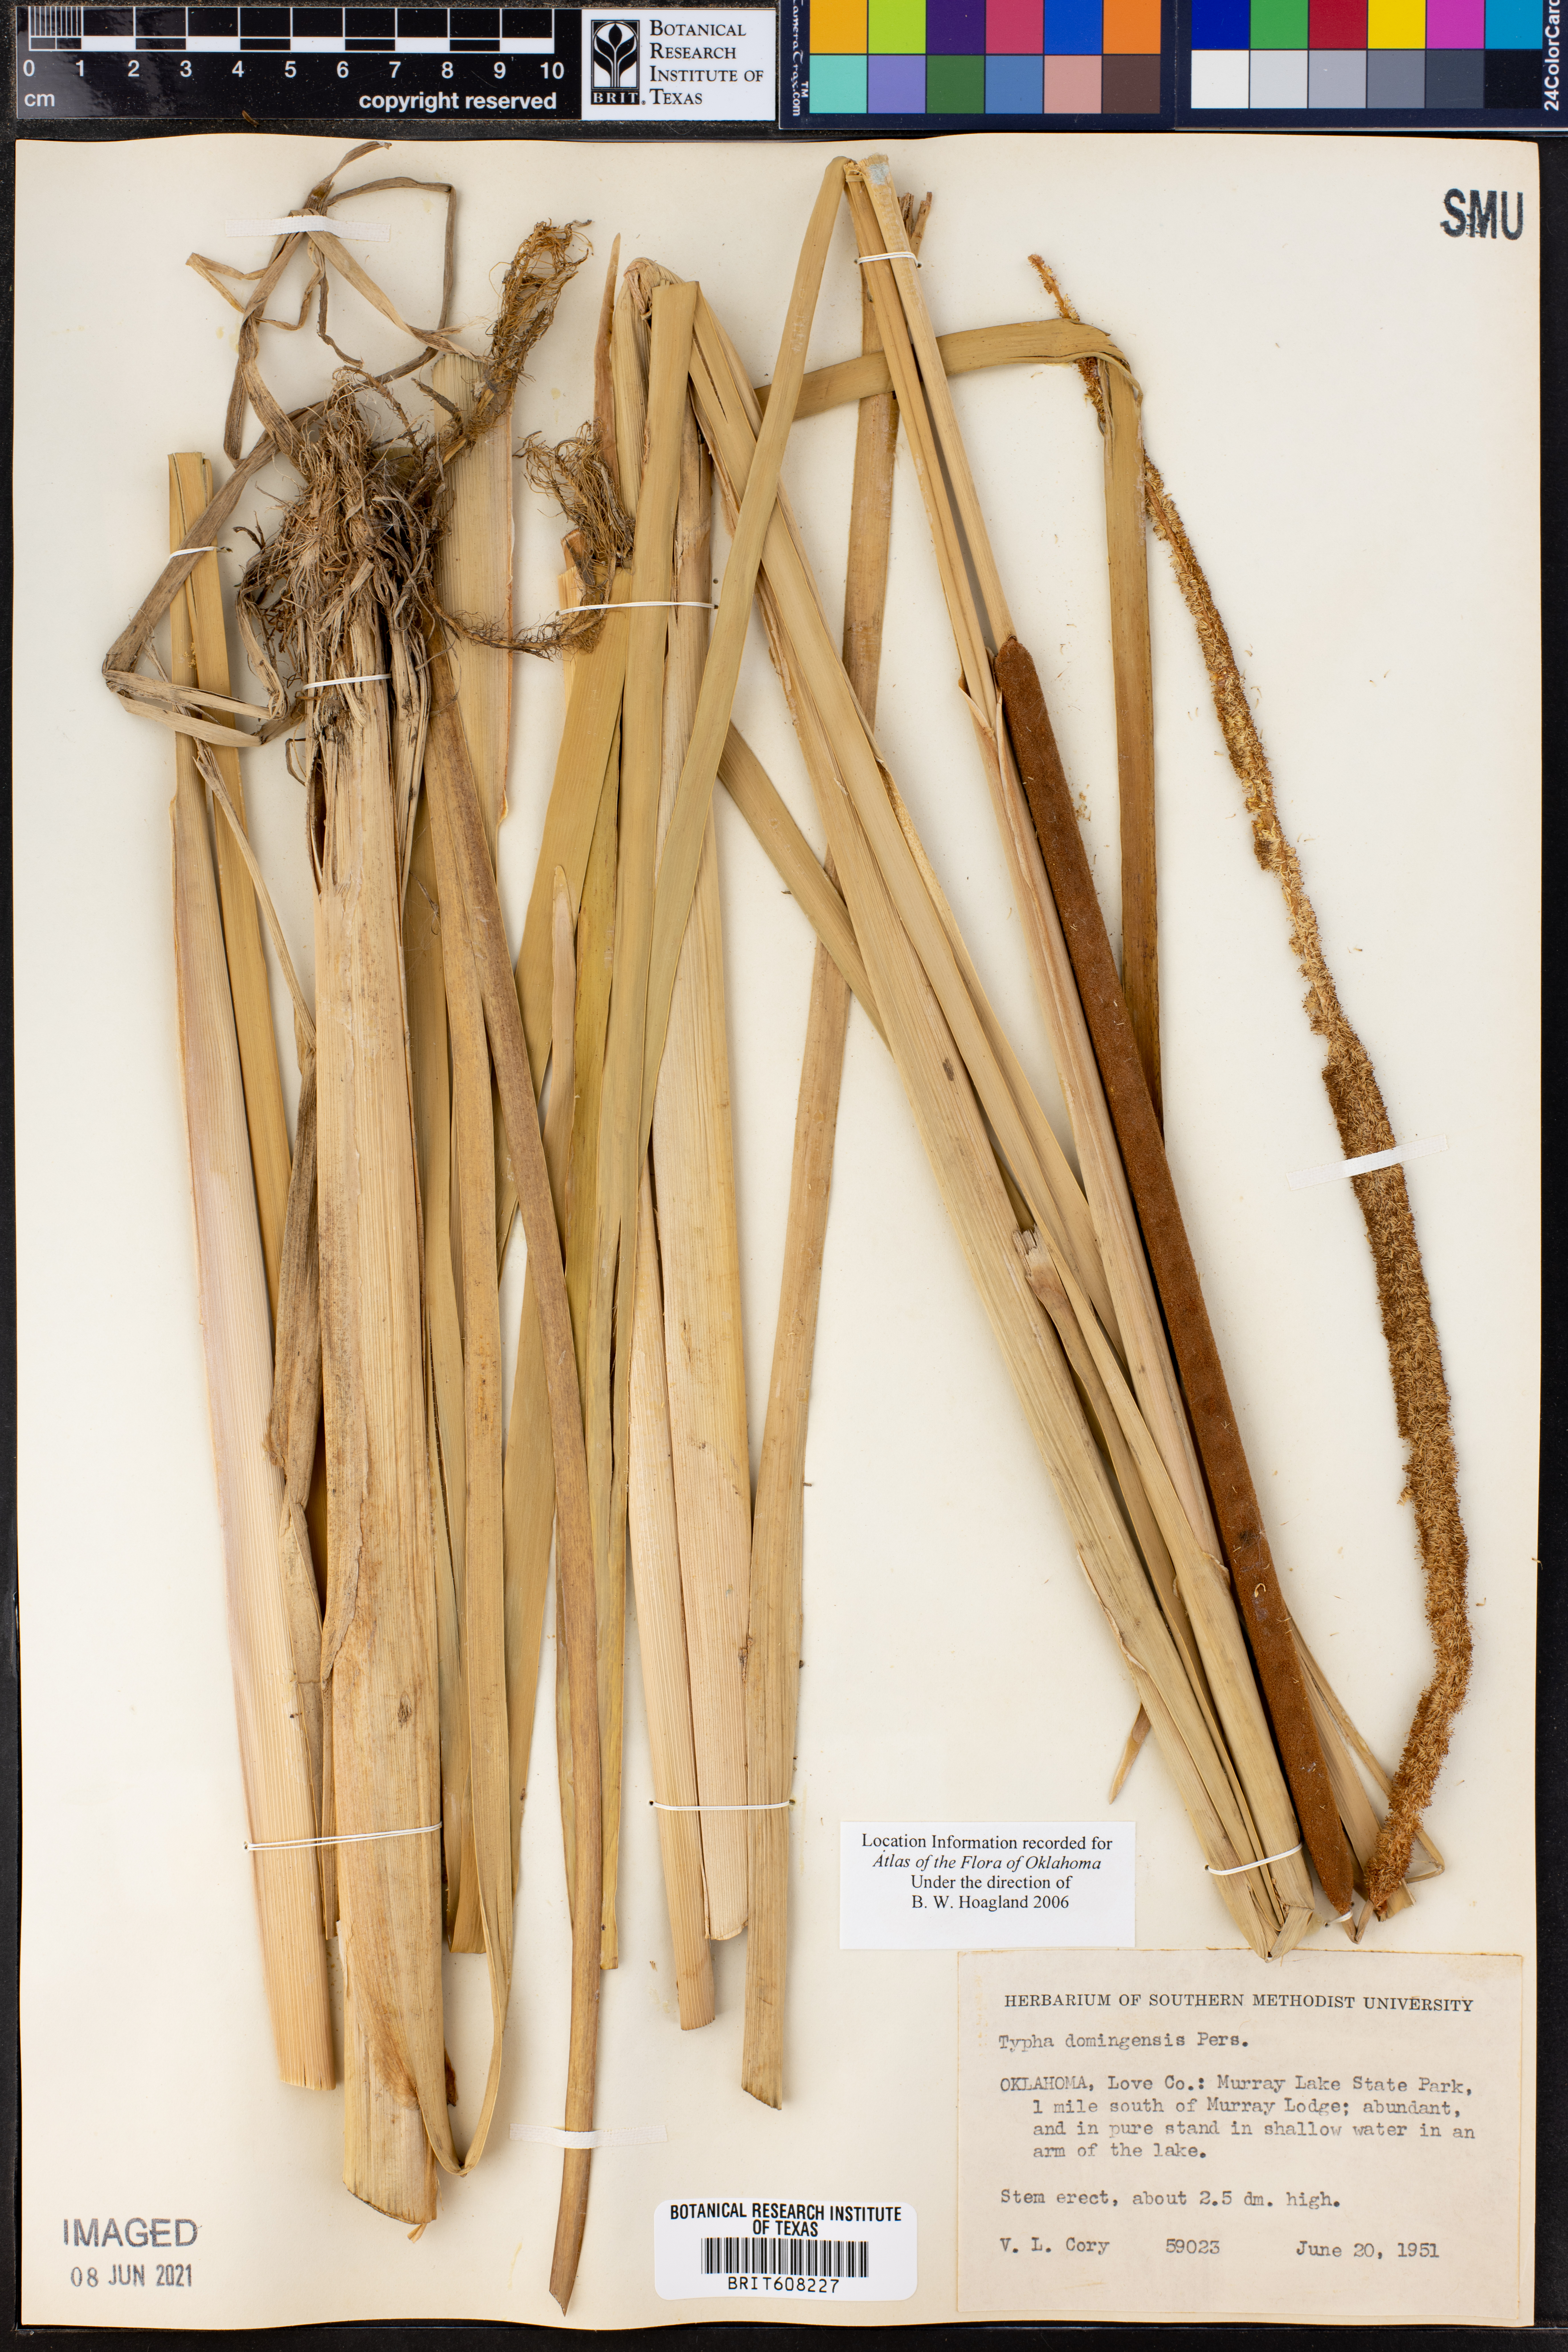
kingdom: Plantae
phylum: Tracheophyta
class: Liliopsida
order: Poales
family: Typhaceae
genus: Typha
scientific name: Typha domingensis
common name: Southern cattail
